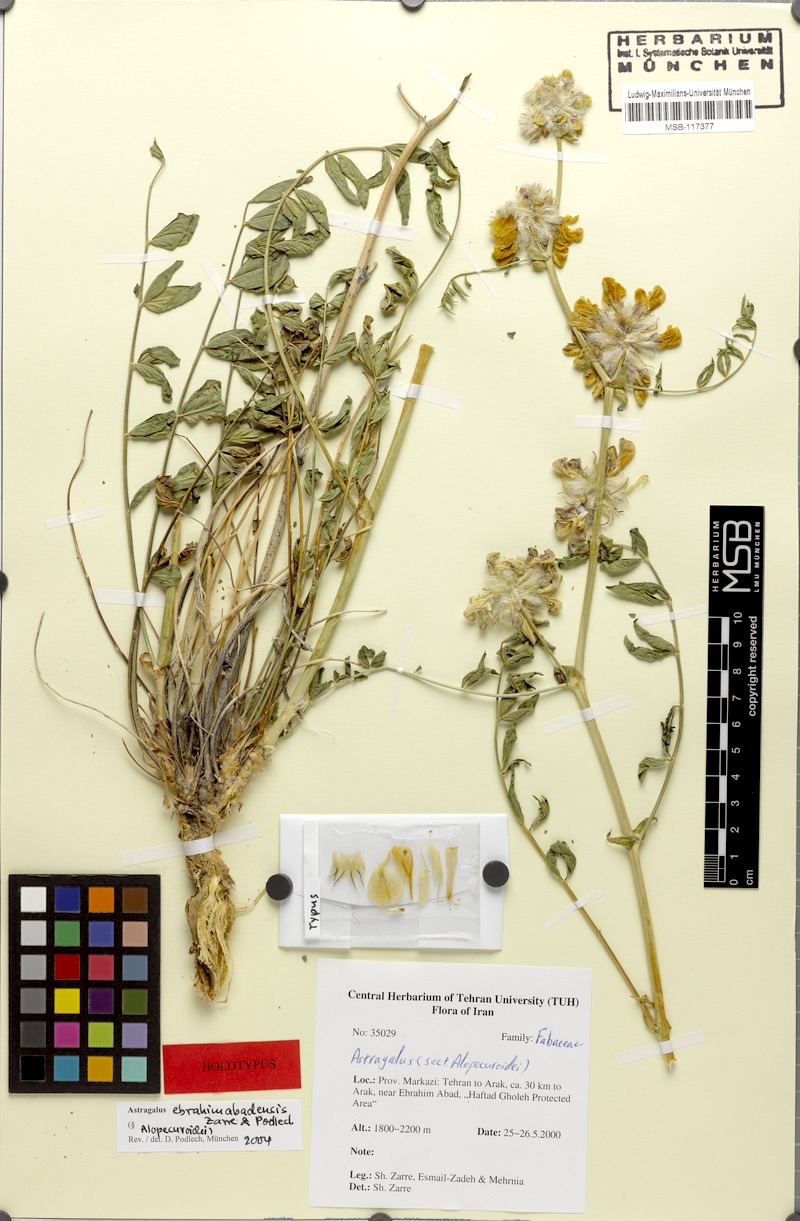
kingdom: Plantae
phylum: Tracheophyta
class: Magnoliopsida
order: Fabales
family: Fabaceae
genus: Astragalus
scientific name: Astragalus ebrahimabadensis
